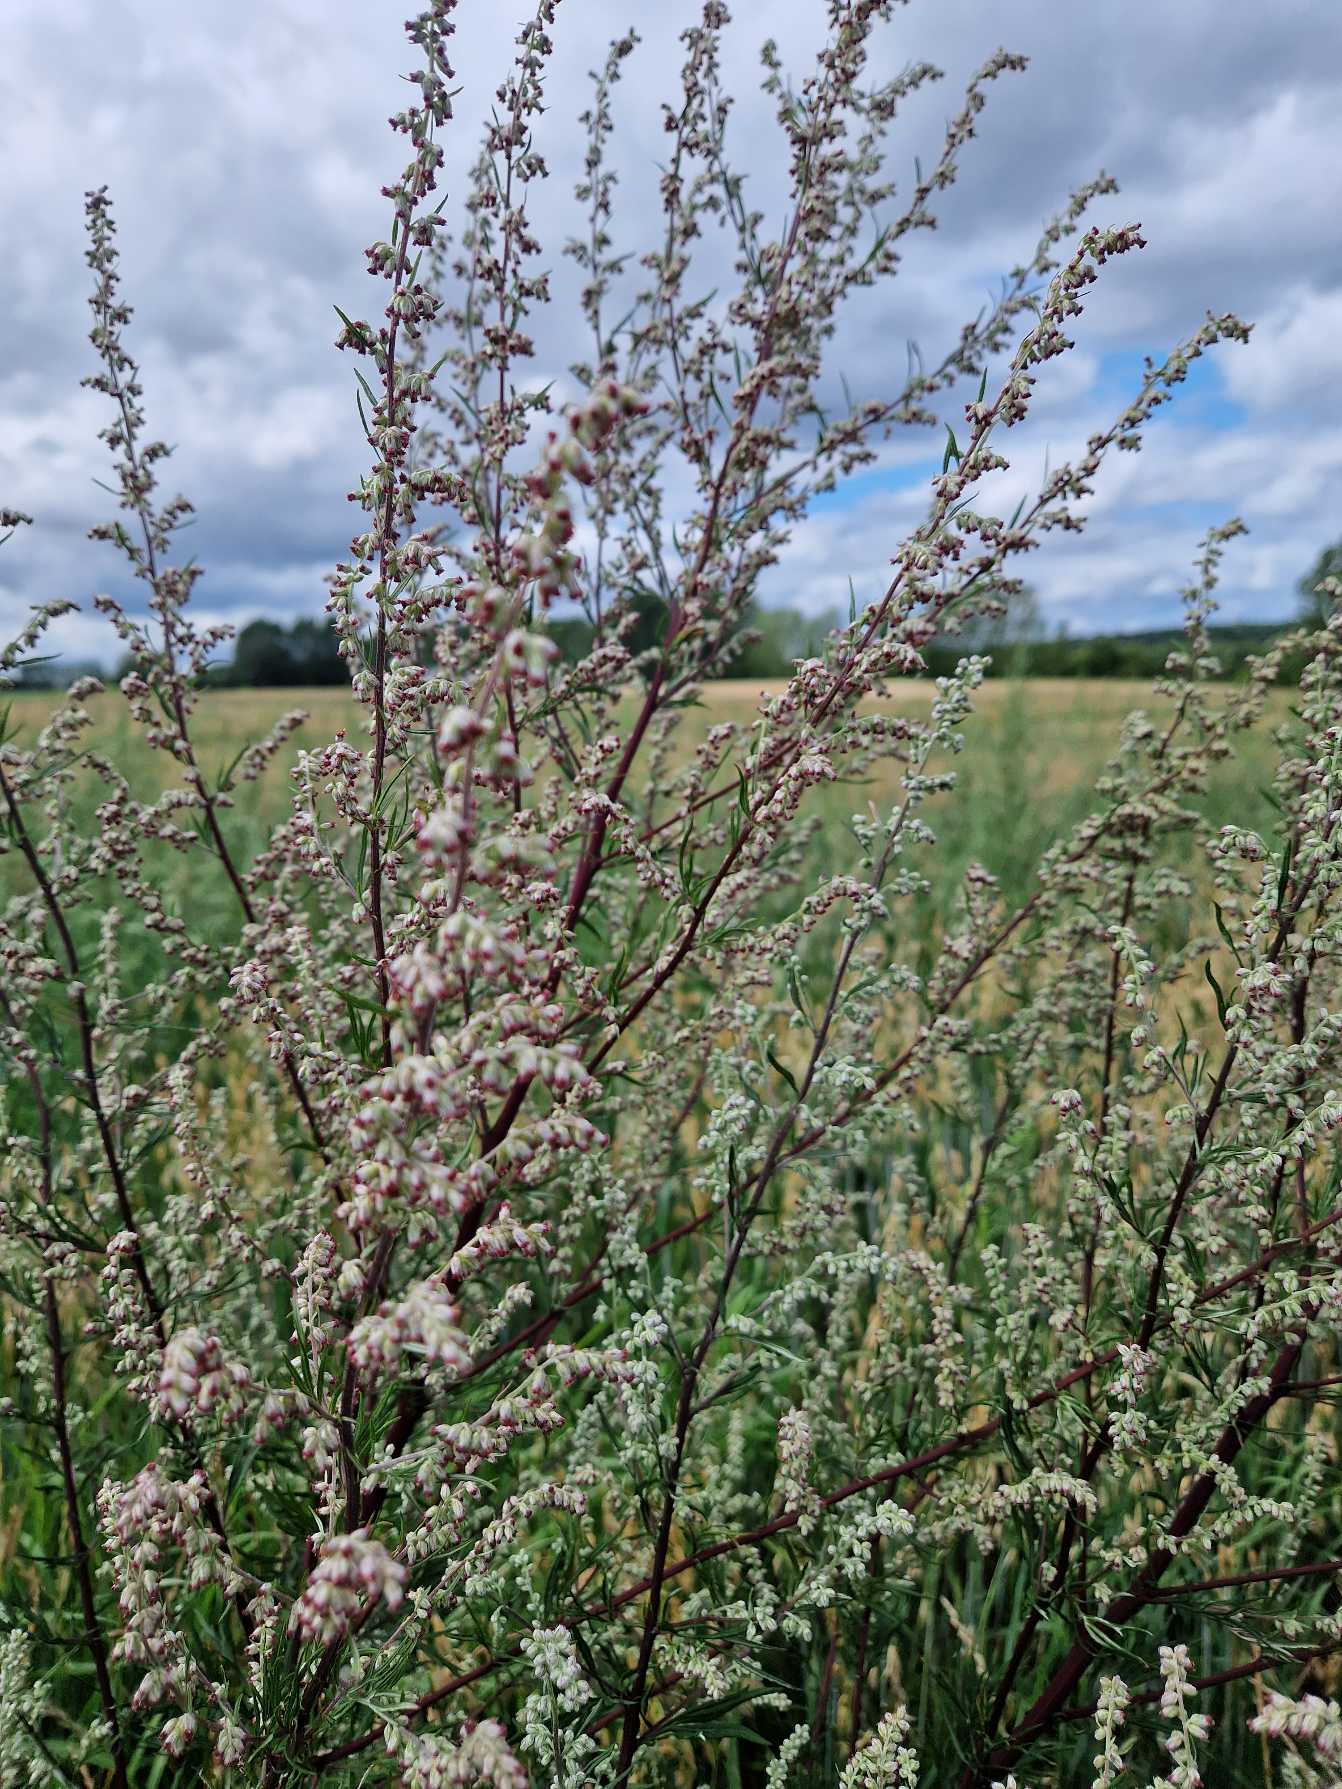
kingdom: Plantae
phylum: Tracheophyta
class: Magnoliopsida
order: Asterales
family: Asteraceae
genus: Artemisia
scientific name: Artemisia vulgaris
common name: Grå-bynke
